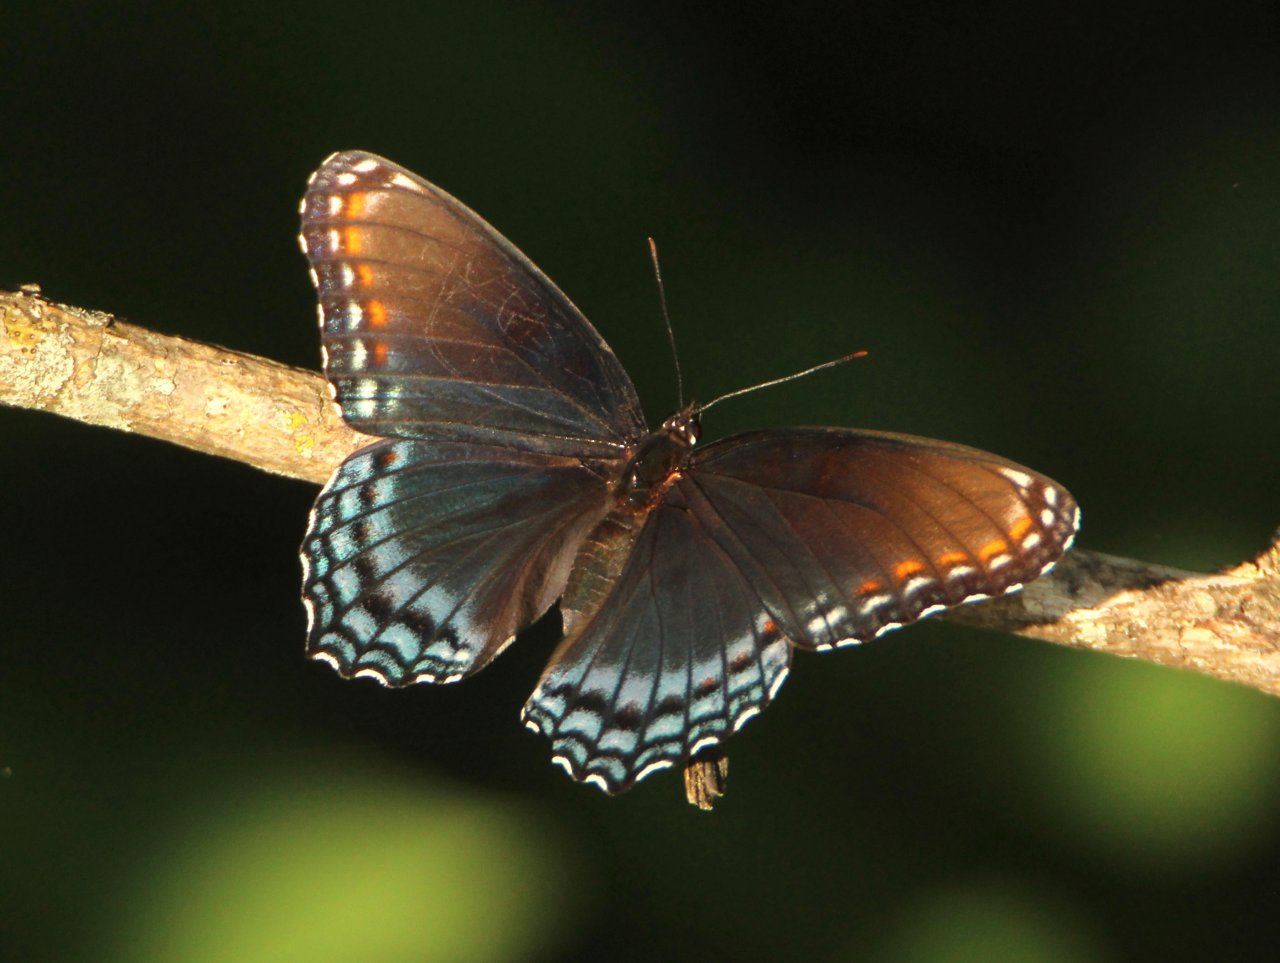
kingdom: Animalia
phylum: Arthropoda
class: Insecta
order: Lepidoptera
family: Nymphalidae
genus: Limenitis
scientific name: Limenitis astyanax
